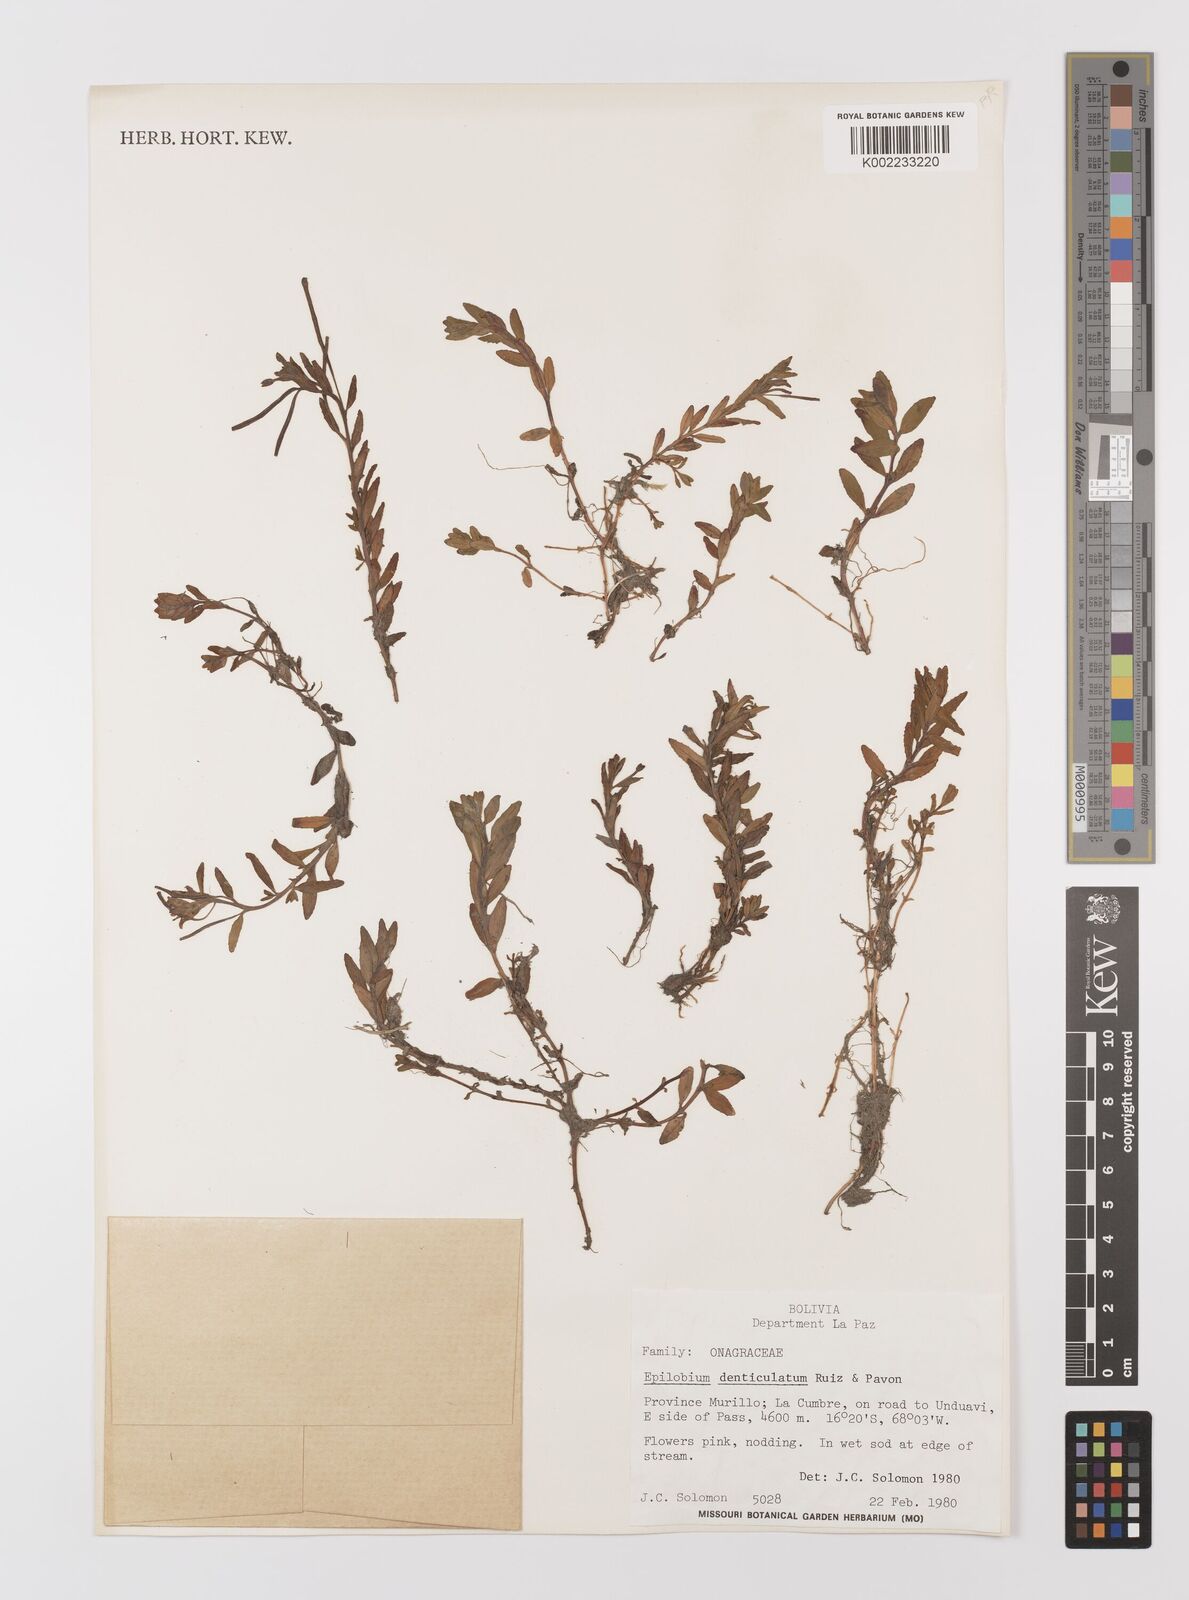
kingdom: Plantae
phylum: Tracheophyta
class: Magnoliopsida
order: Myrtales
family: Onagraceae
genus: Epilobium
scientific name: Epilobium denticulatum
